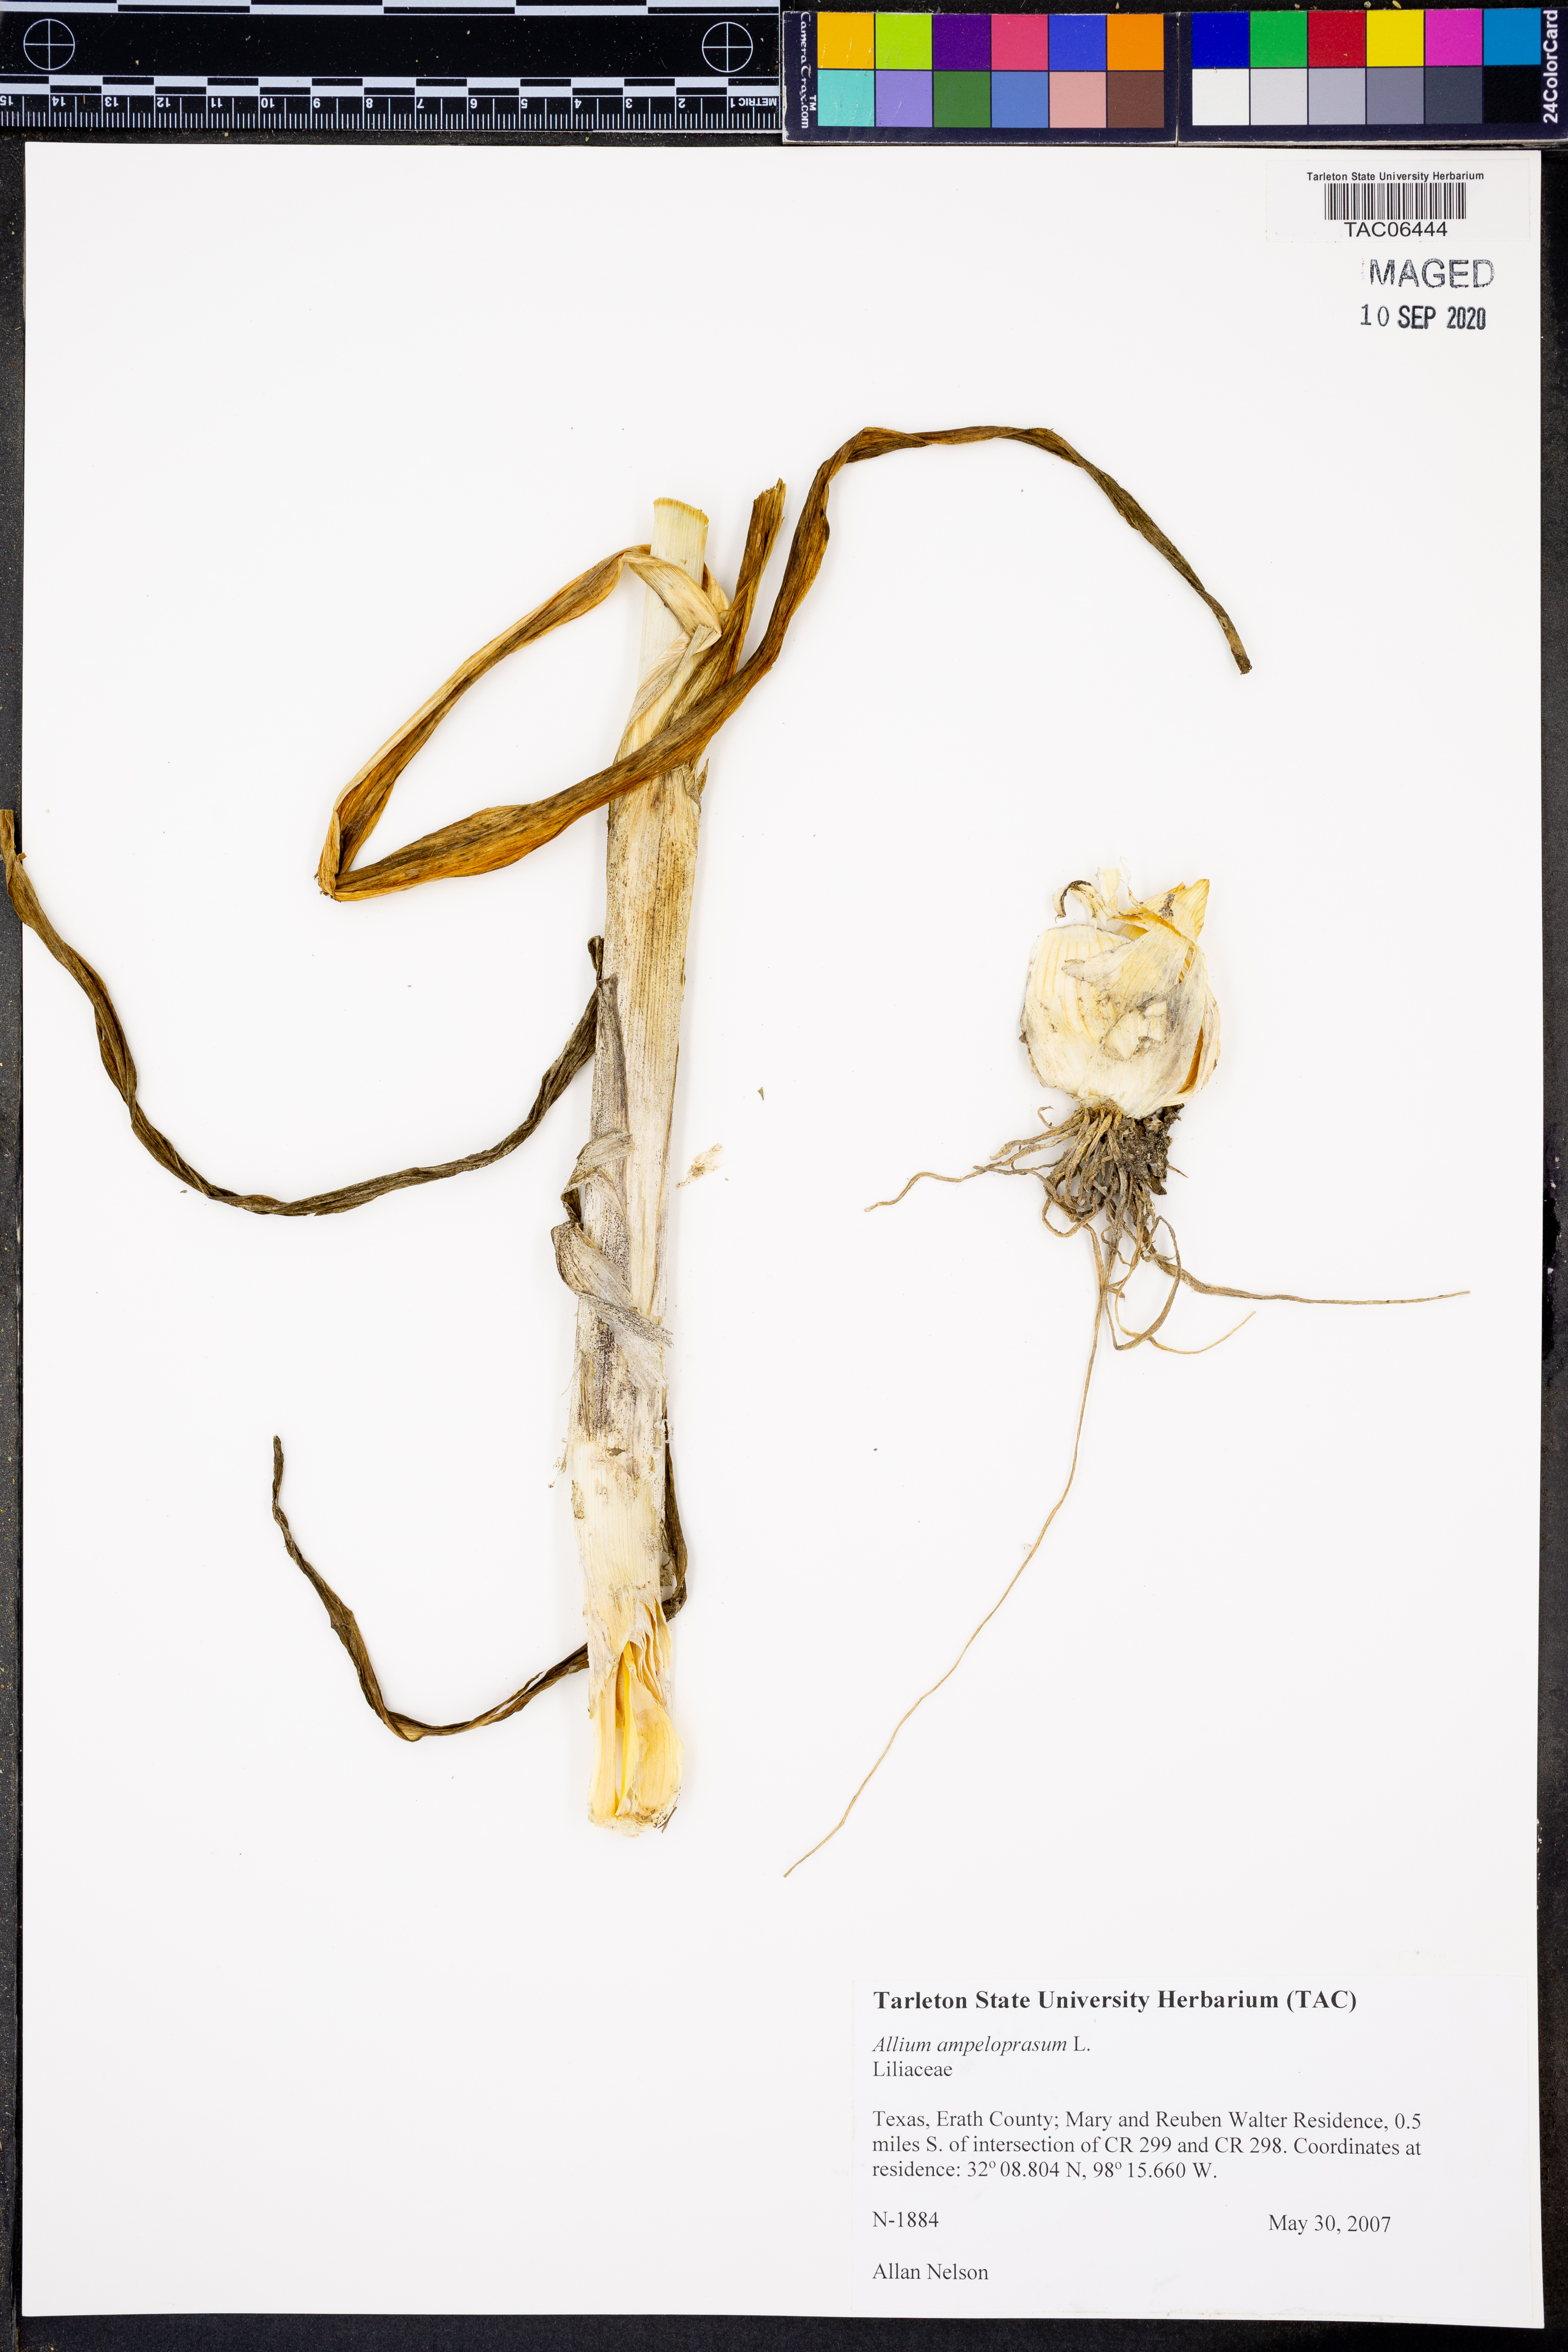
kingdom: Plantae
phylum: Tracheophyta
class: Liliopsida
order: Asparagales
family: Amaryllidaceae
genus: Allium
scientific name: Allium ampeloprasum
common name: Wild leek
